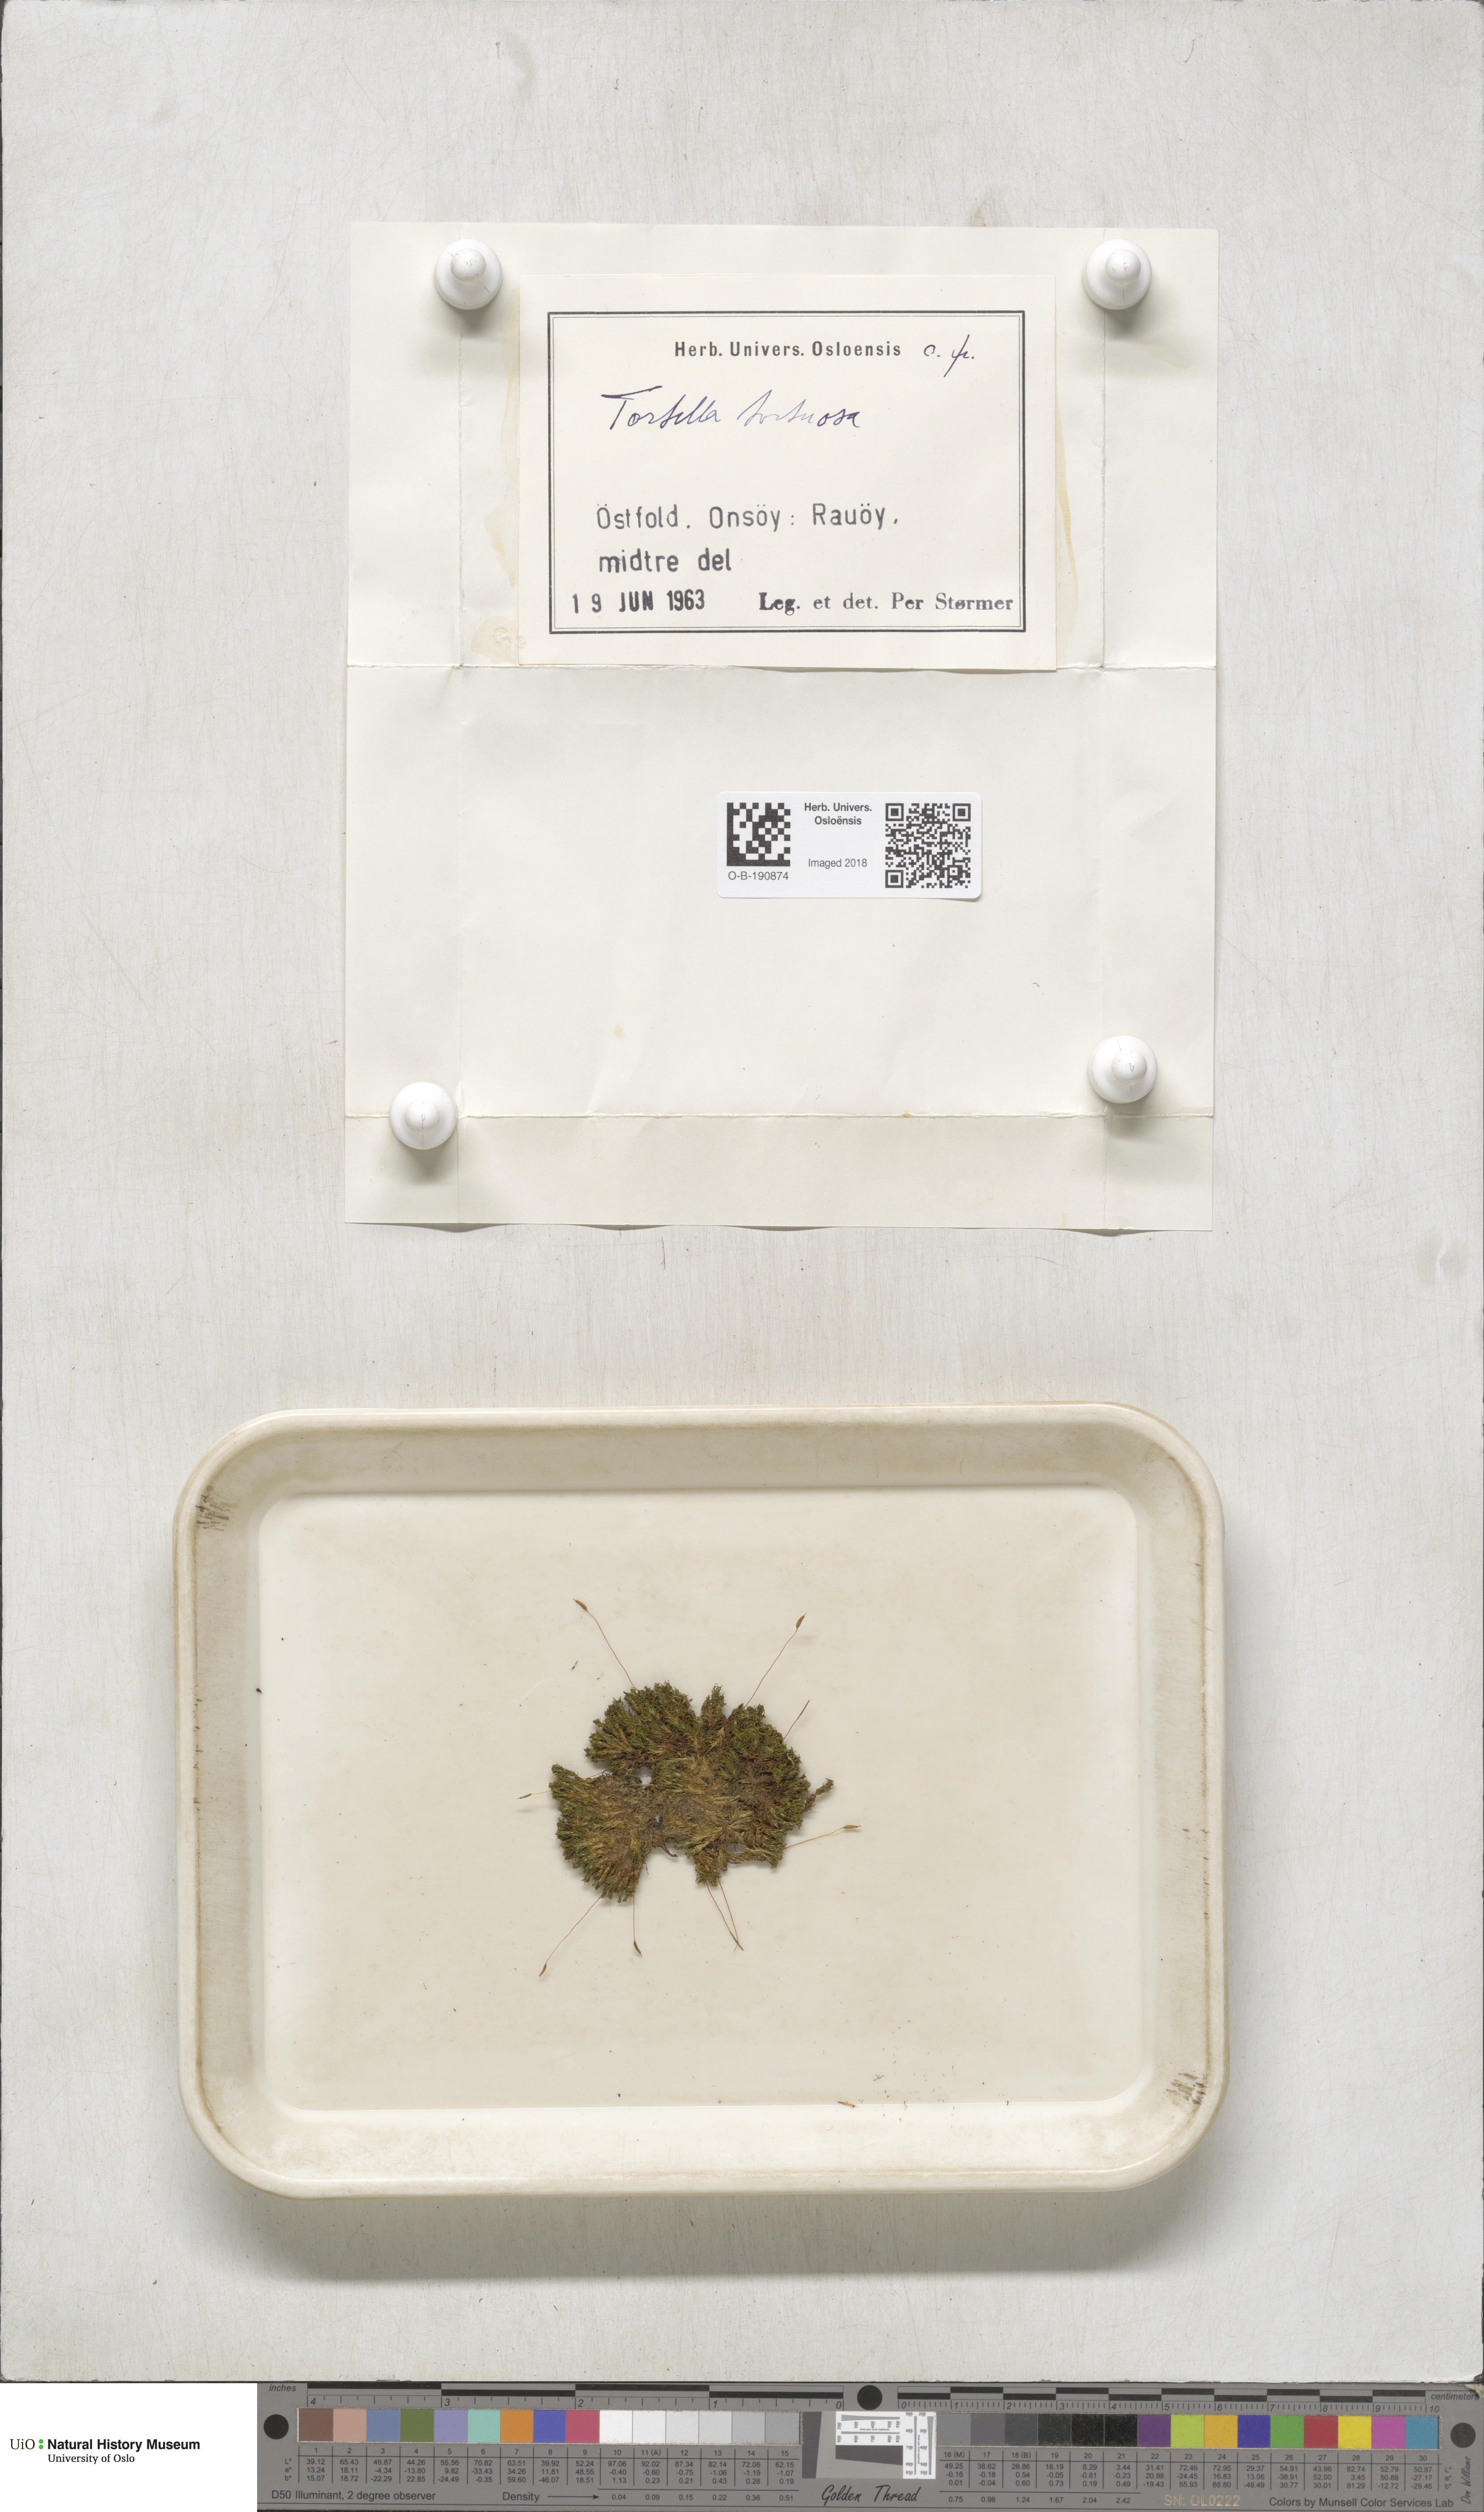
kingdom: Plantae
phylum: Bryophyta
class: Bryopsida
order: Pottiales
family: Pottiaceae
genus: Tortella
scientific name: Tortella tortuosa
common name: Frizzled crisp moss
